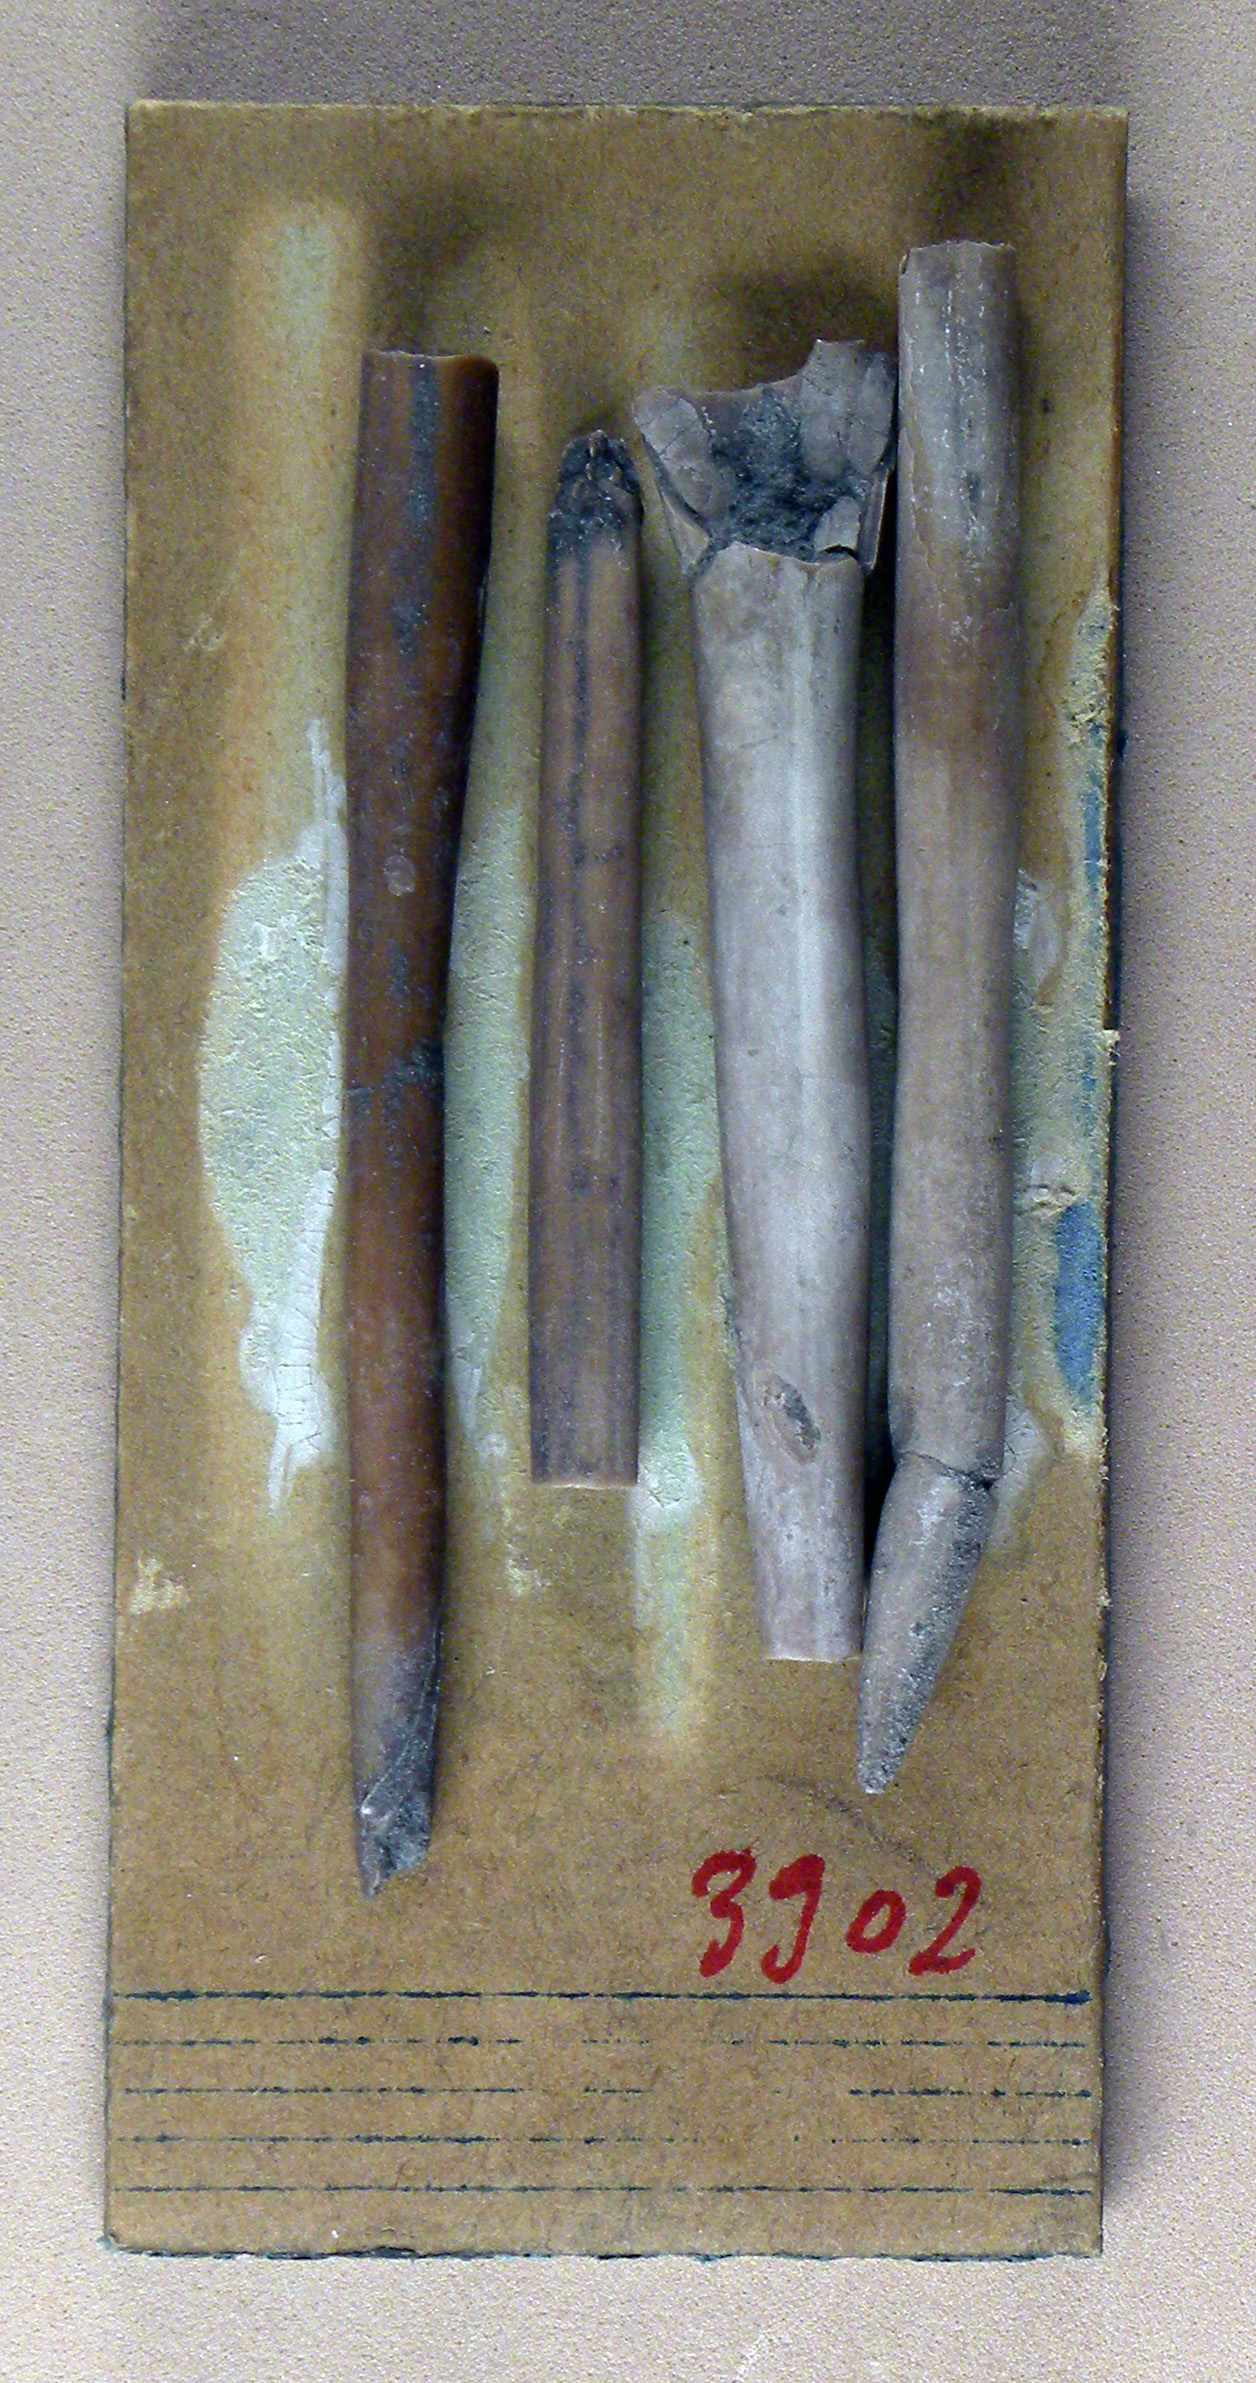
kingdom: Animalia
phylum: Mollusca
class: Cephalopoda
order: Belemnitida
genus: Bairstowius
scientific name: Bairstowius junceus
